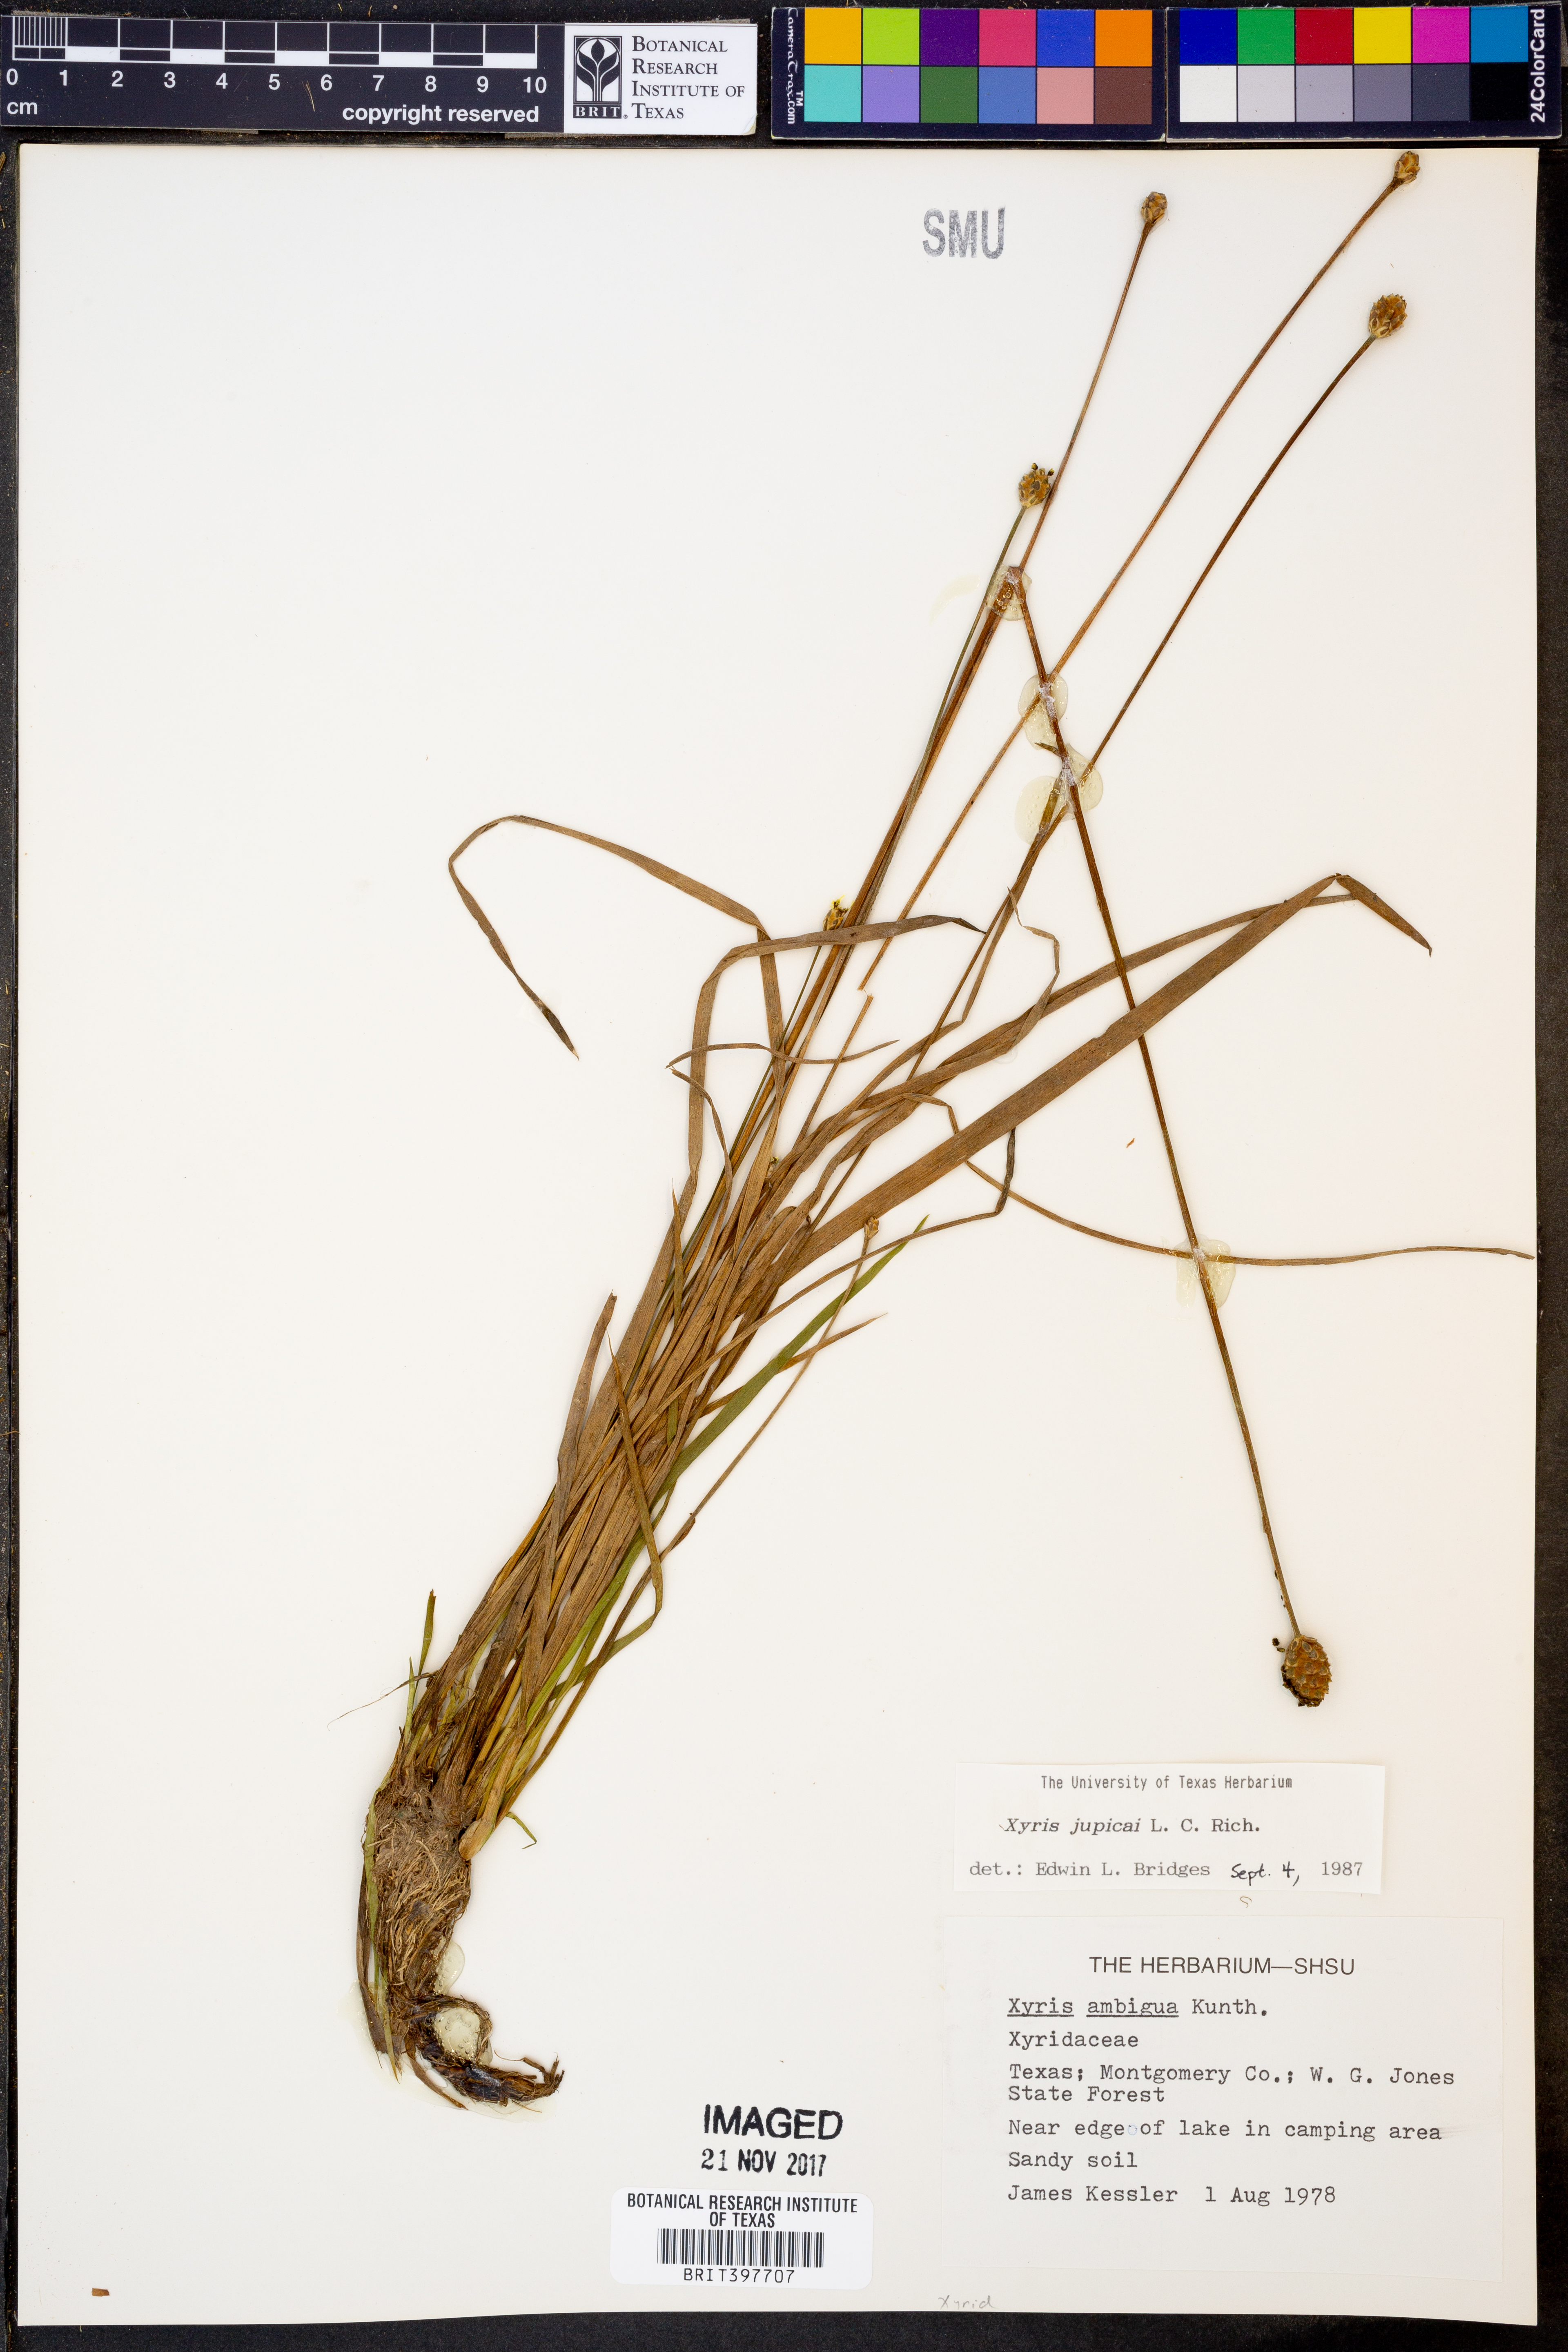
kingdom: Plantae
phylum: Tracheophyta
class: Liliopsida
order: Poales
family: Xyridaceae
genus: Xyris
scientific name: Xyris jupicai
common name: Richard's yelloweyed grass
